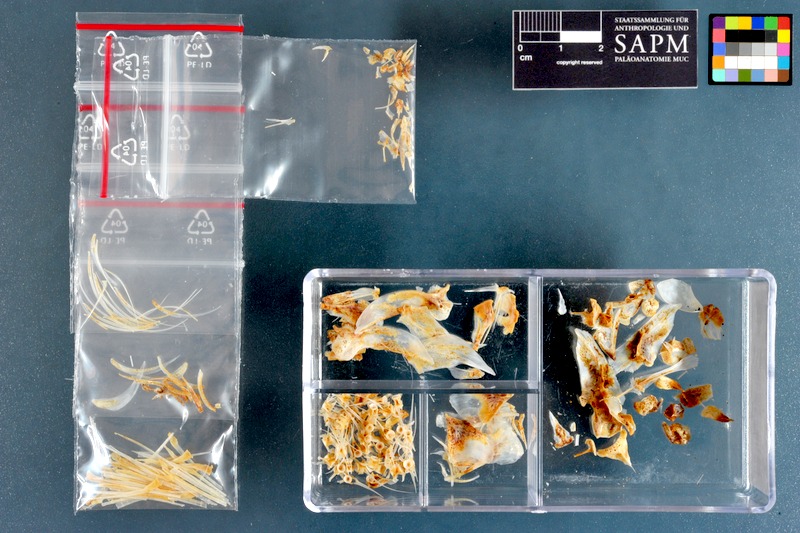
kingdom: Animalia
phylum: Chordata
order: Beloniformes
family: Exocoetidae
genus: Parexocoetus
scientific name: Parexocoetus mento
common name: African sailfin flyingfish
